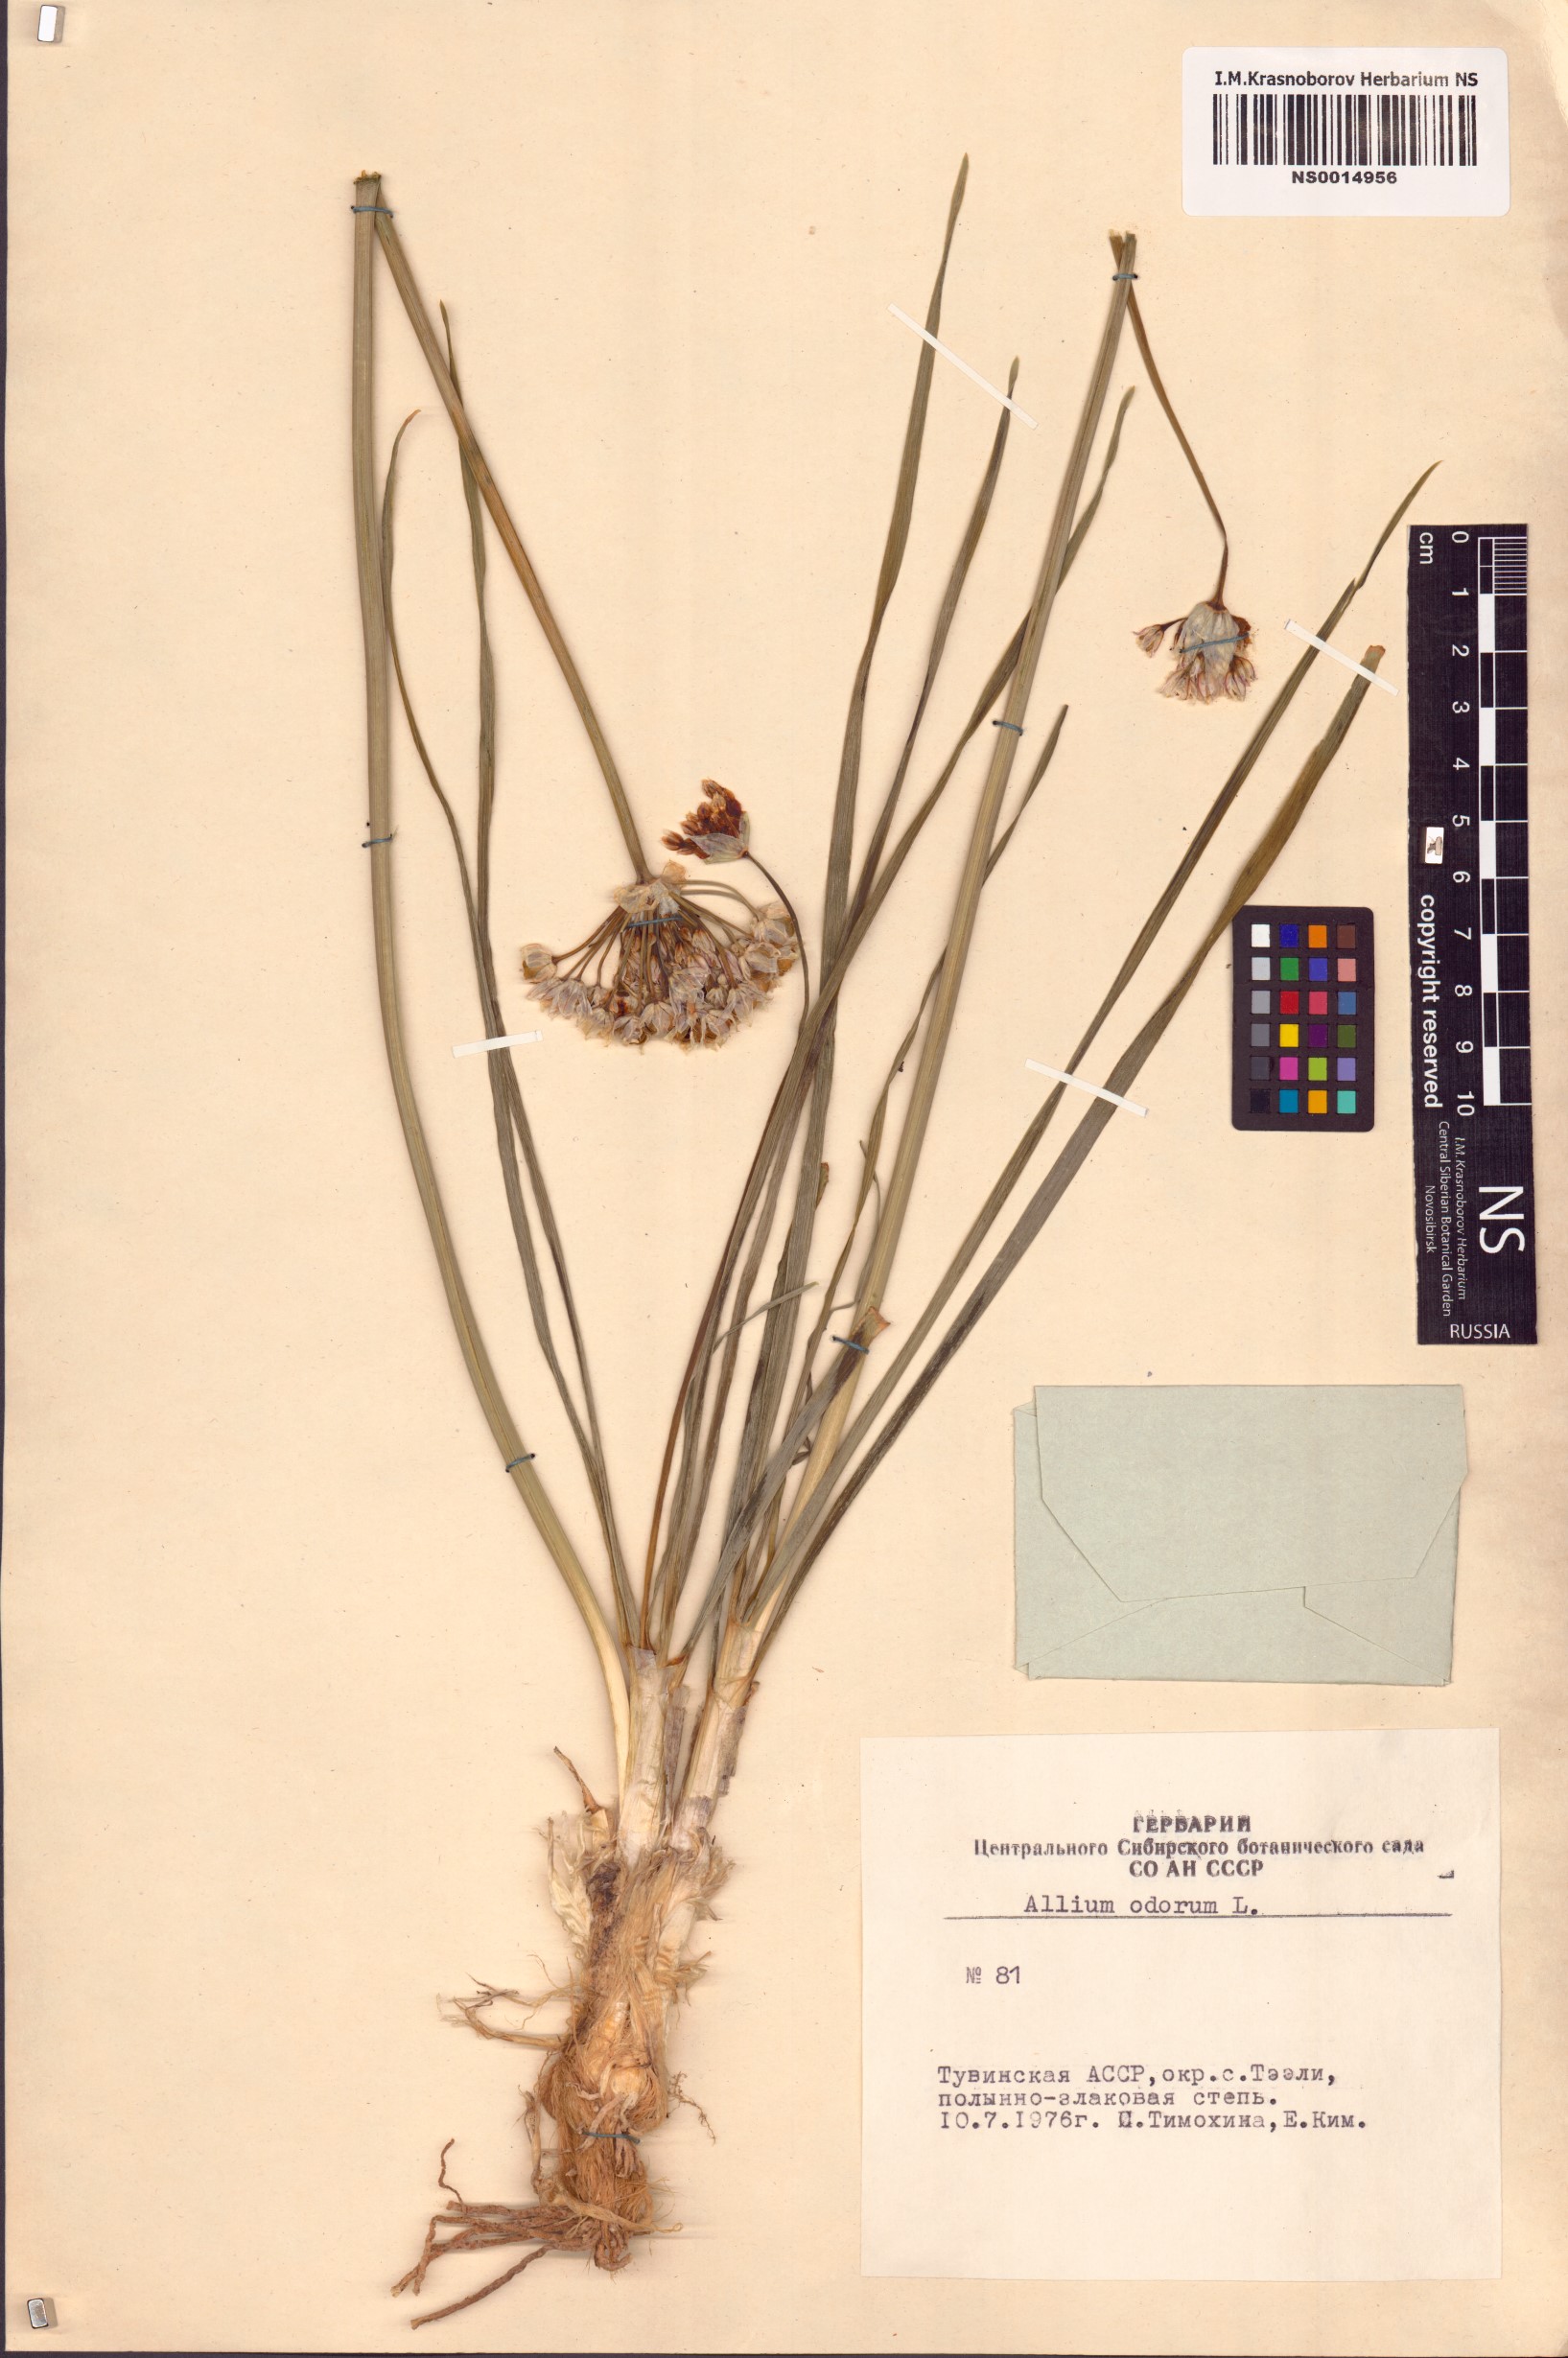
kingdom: Plantae
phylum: Tracheophyta
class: Liliopsida
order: Asparagales
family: Amaryllidaceae
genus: Allium
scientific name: Allium ramosum
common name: Fragrant garlic
